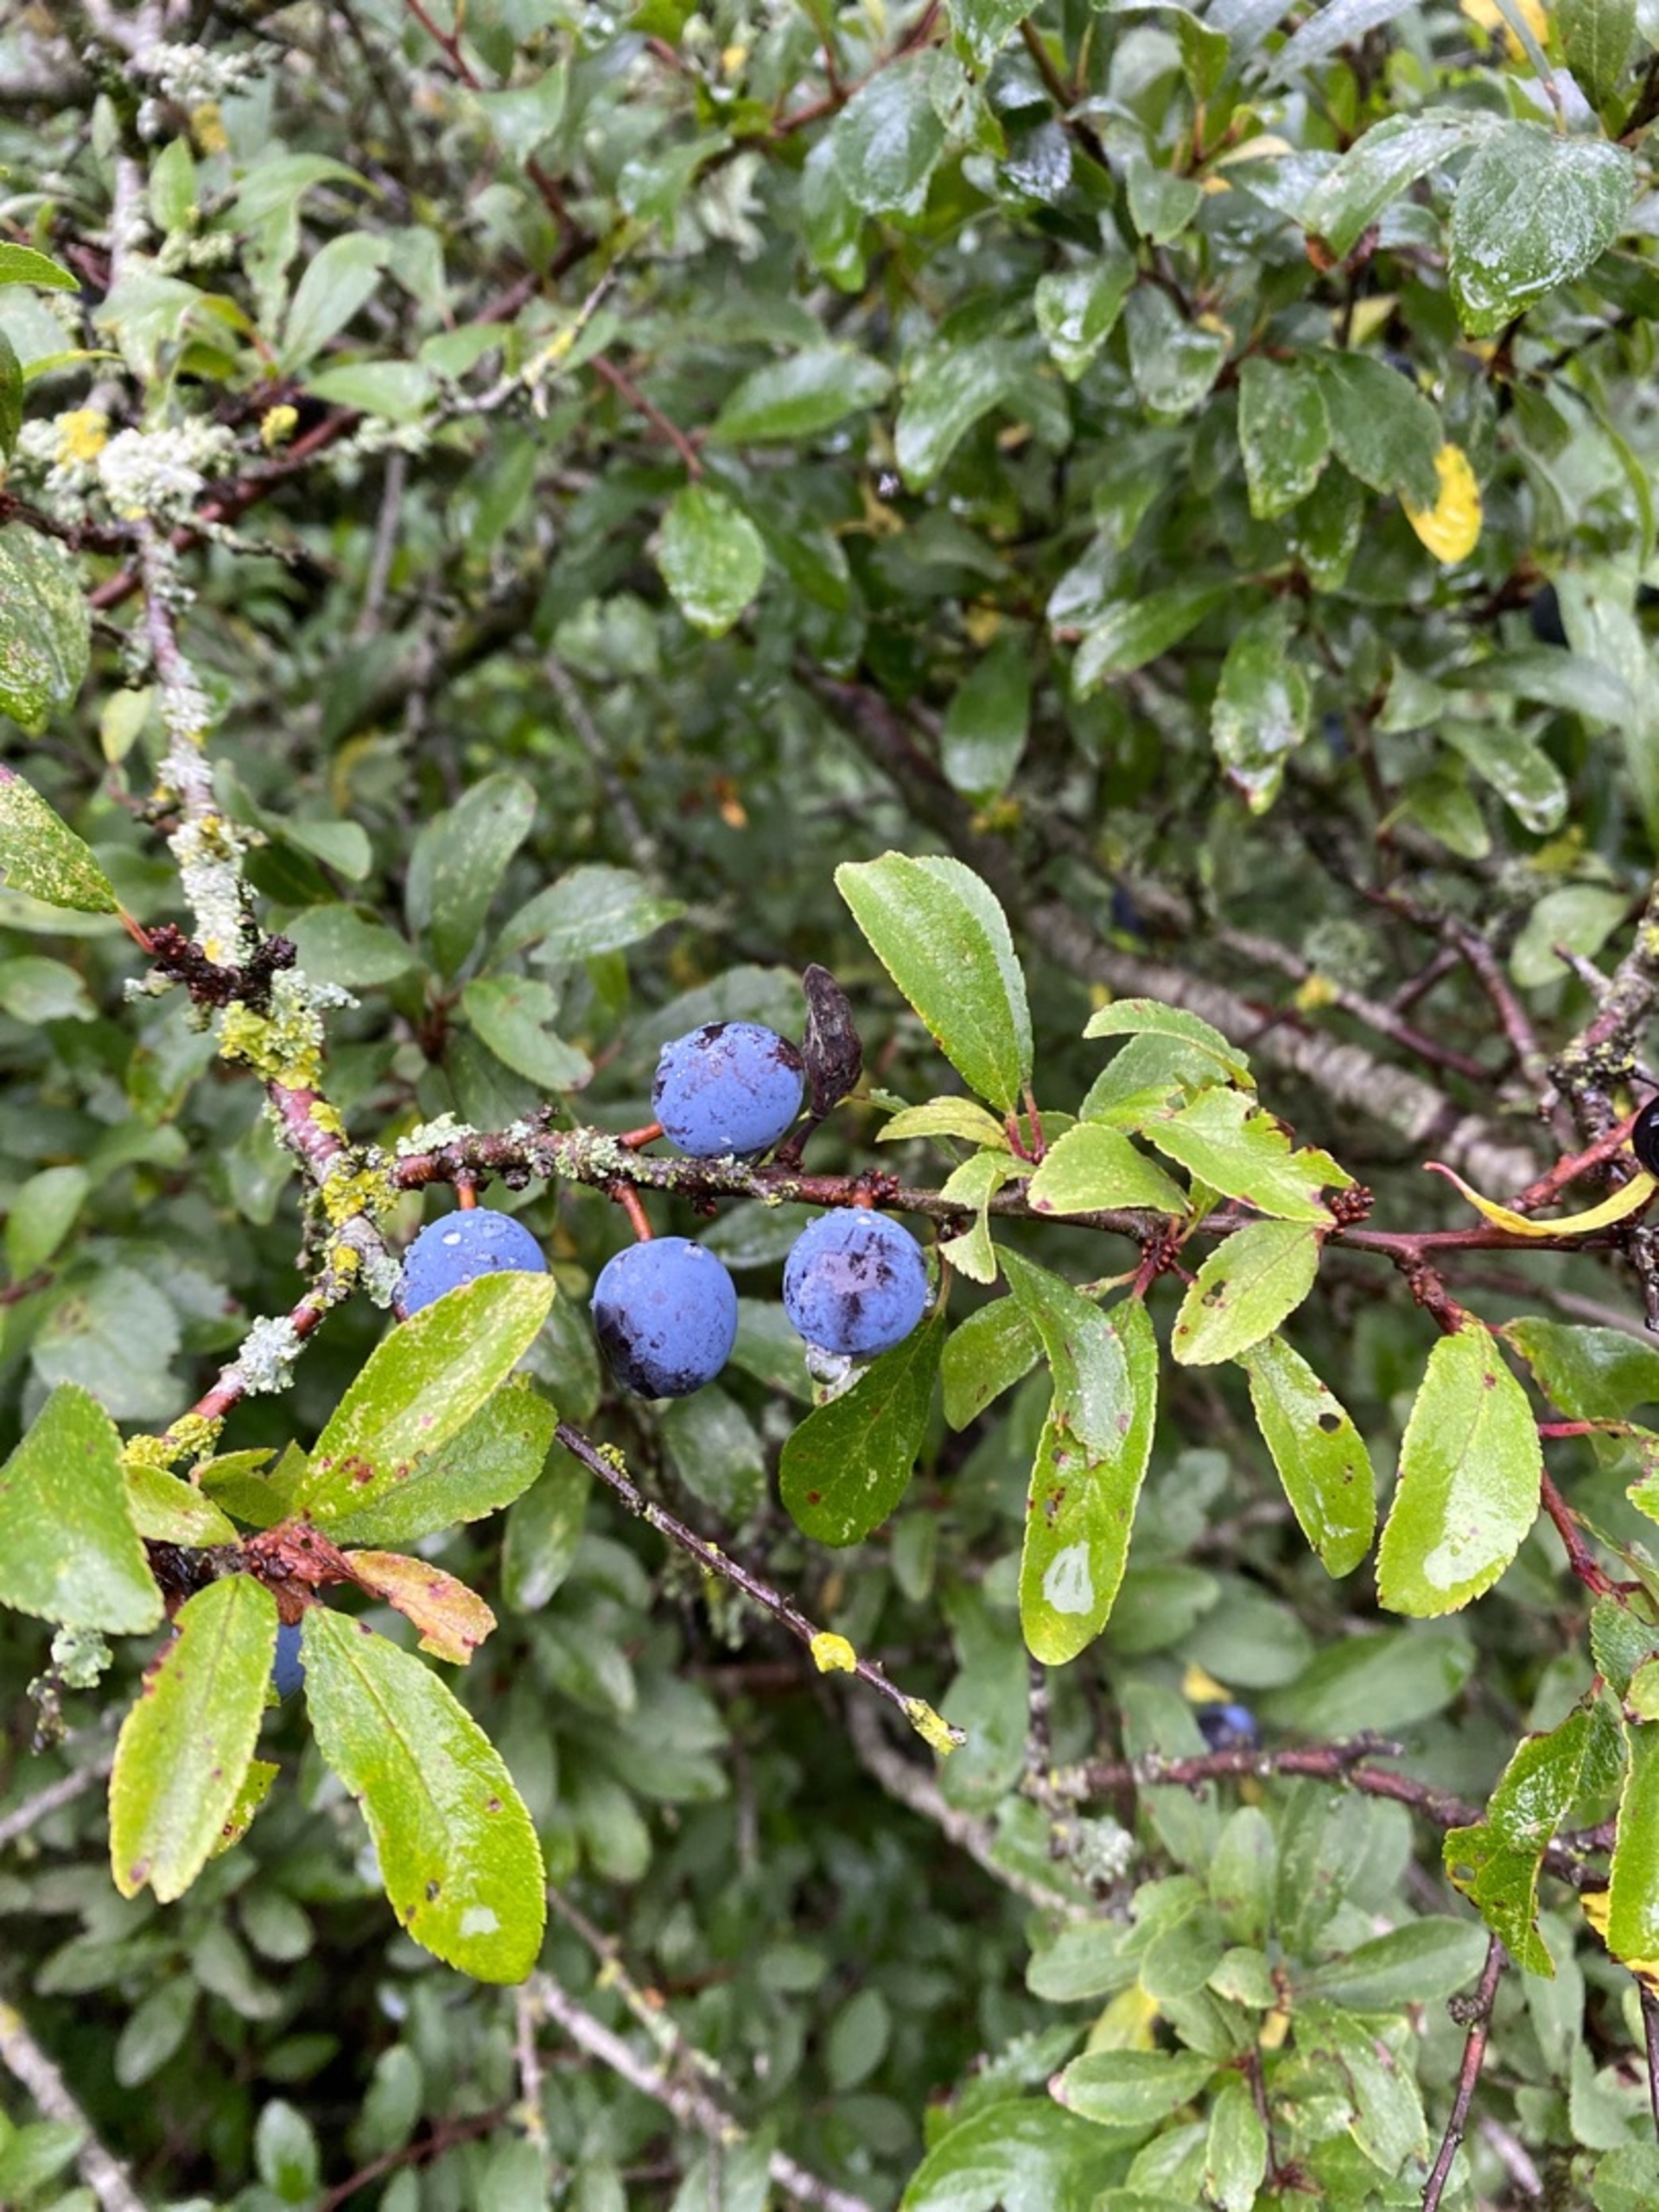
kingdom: Plantae
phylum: Tracheophyta
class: Magnoliopsida
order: Rosales
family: Rosaceae
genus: Prunus
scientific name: Prunus spinosa
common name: Slåen
